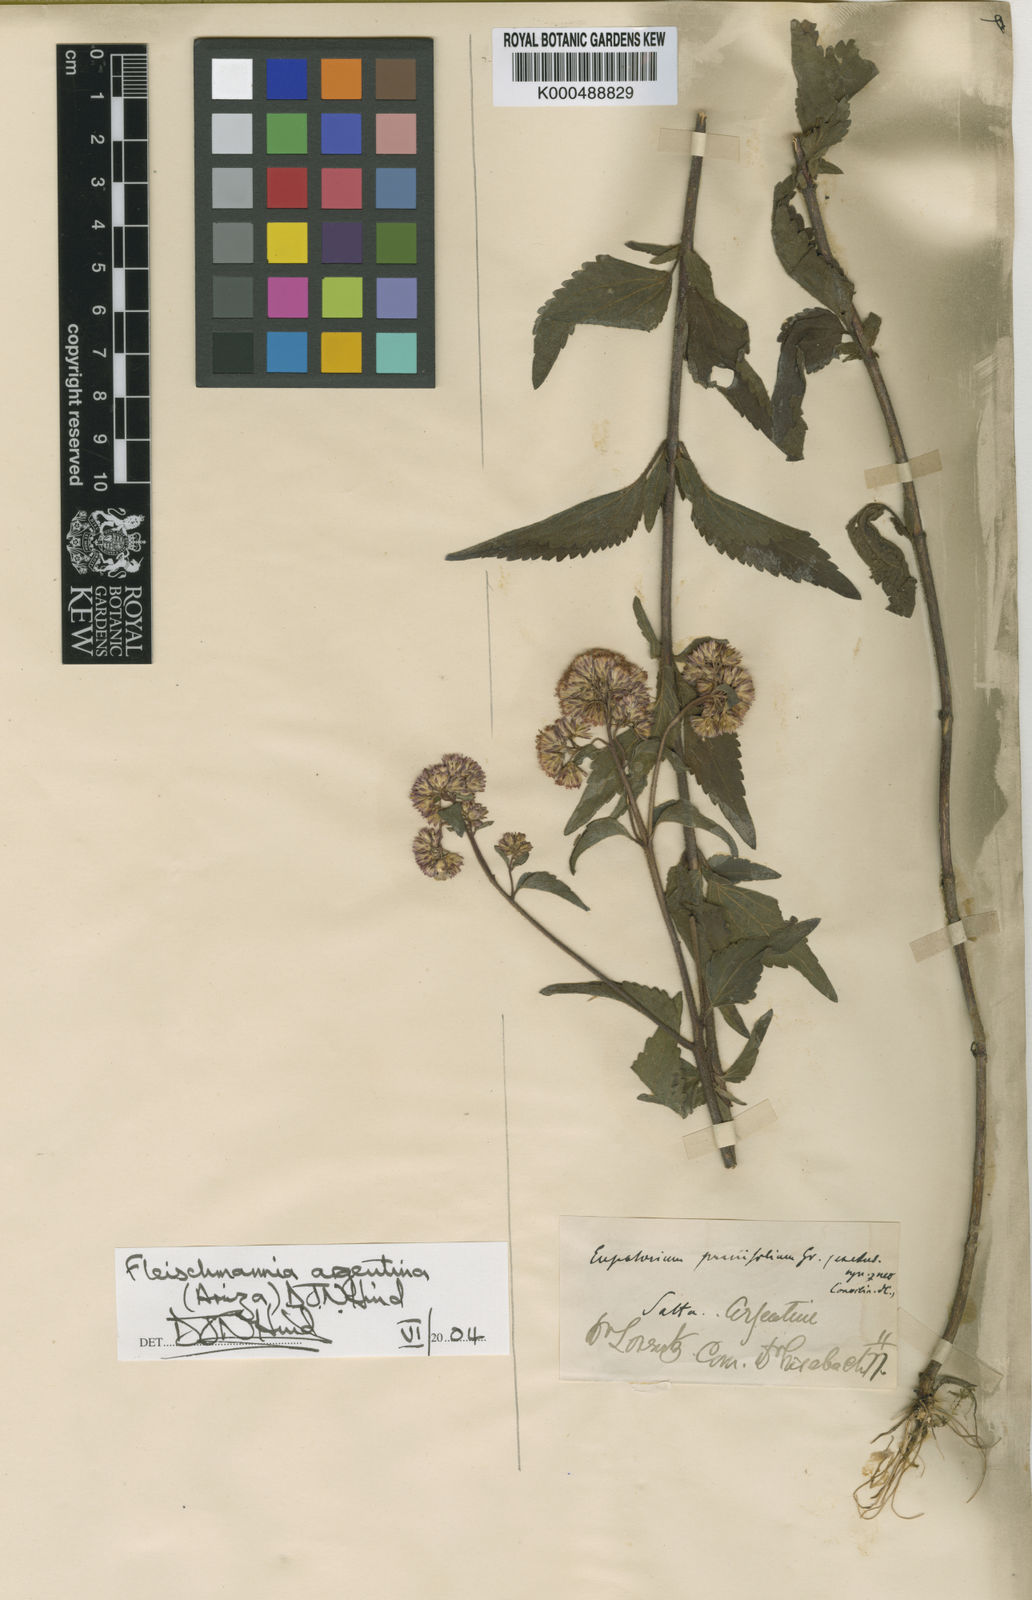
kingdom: Plantae
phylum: Tracheophyta
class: Magnoliopsida
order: Asterales
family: Asteraceae
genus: Fleischmannia
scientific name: Fleischmannia
